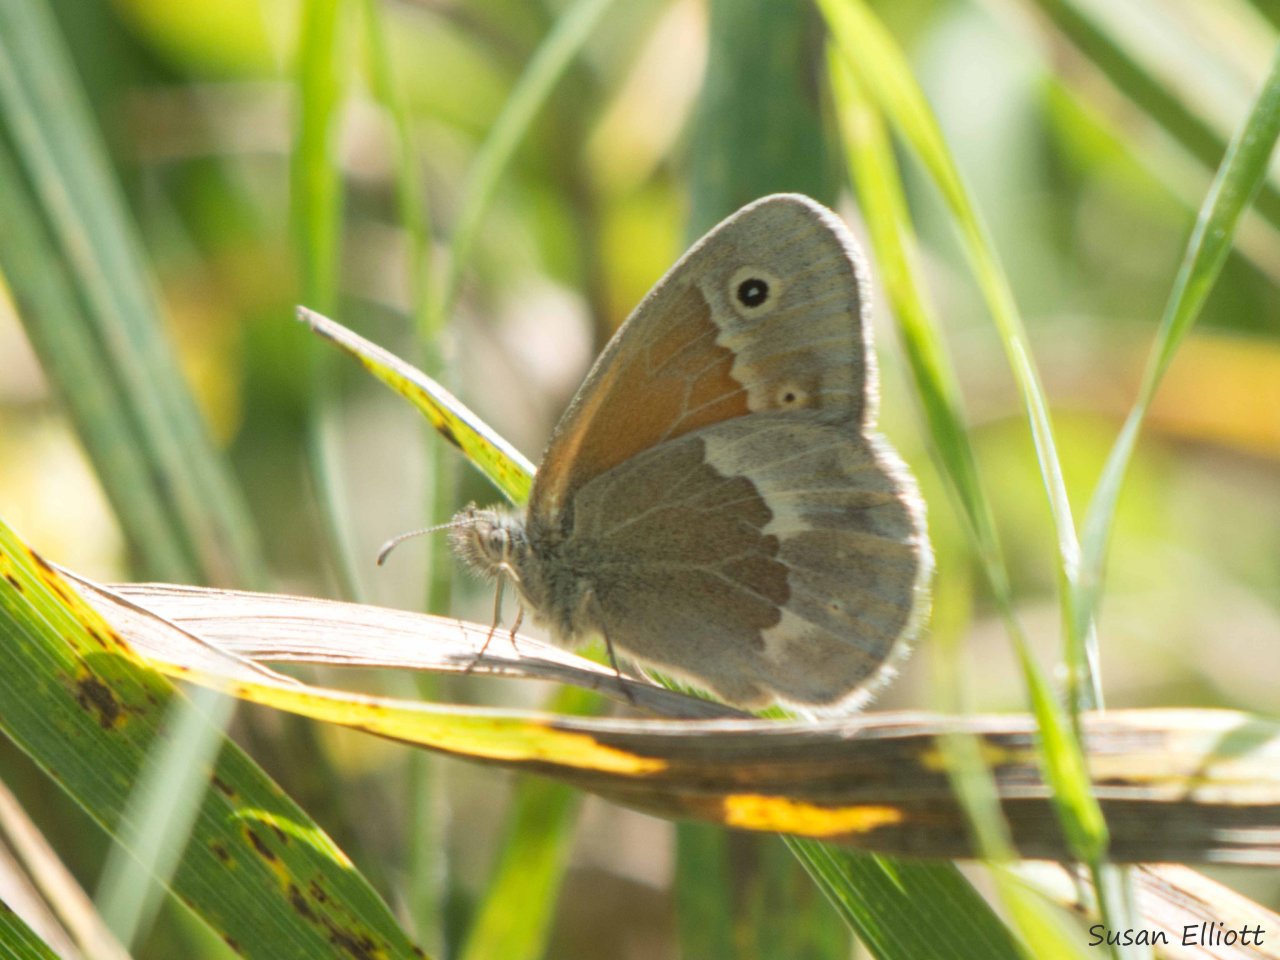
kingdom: Animalia
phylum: Arthropoda
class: Insecta
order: Lepidoptera
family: Nymphalidae
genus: Coenonympha
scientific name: Coenonympha tullia
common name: Large Heath
